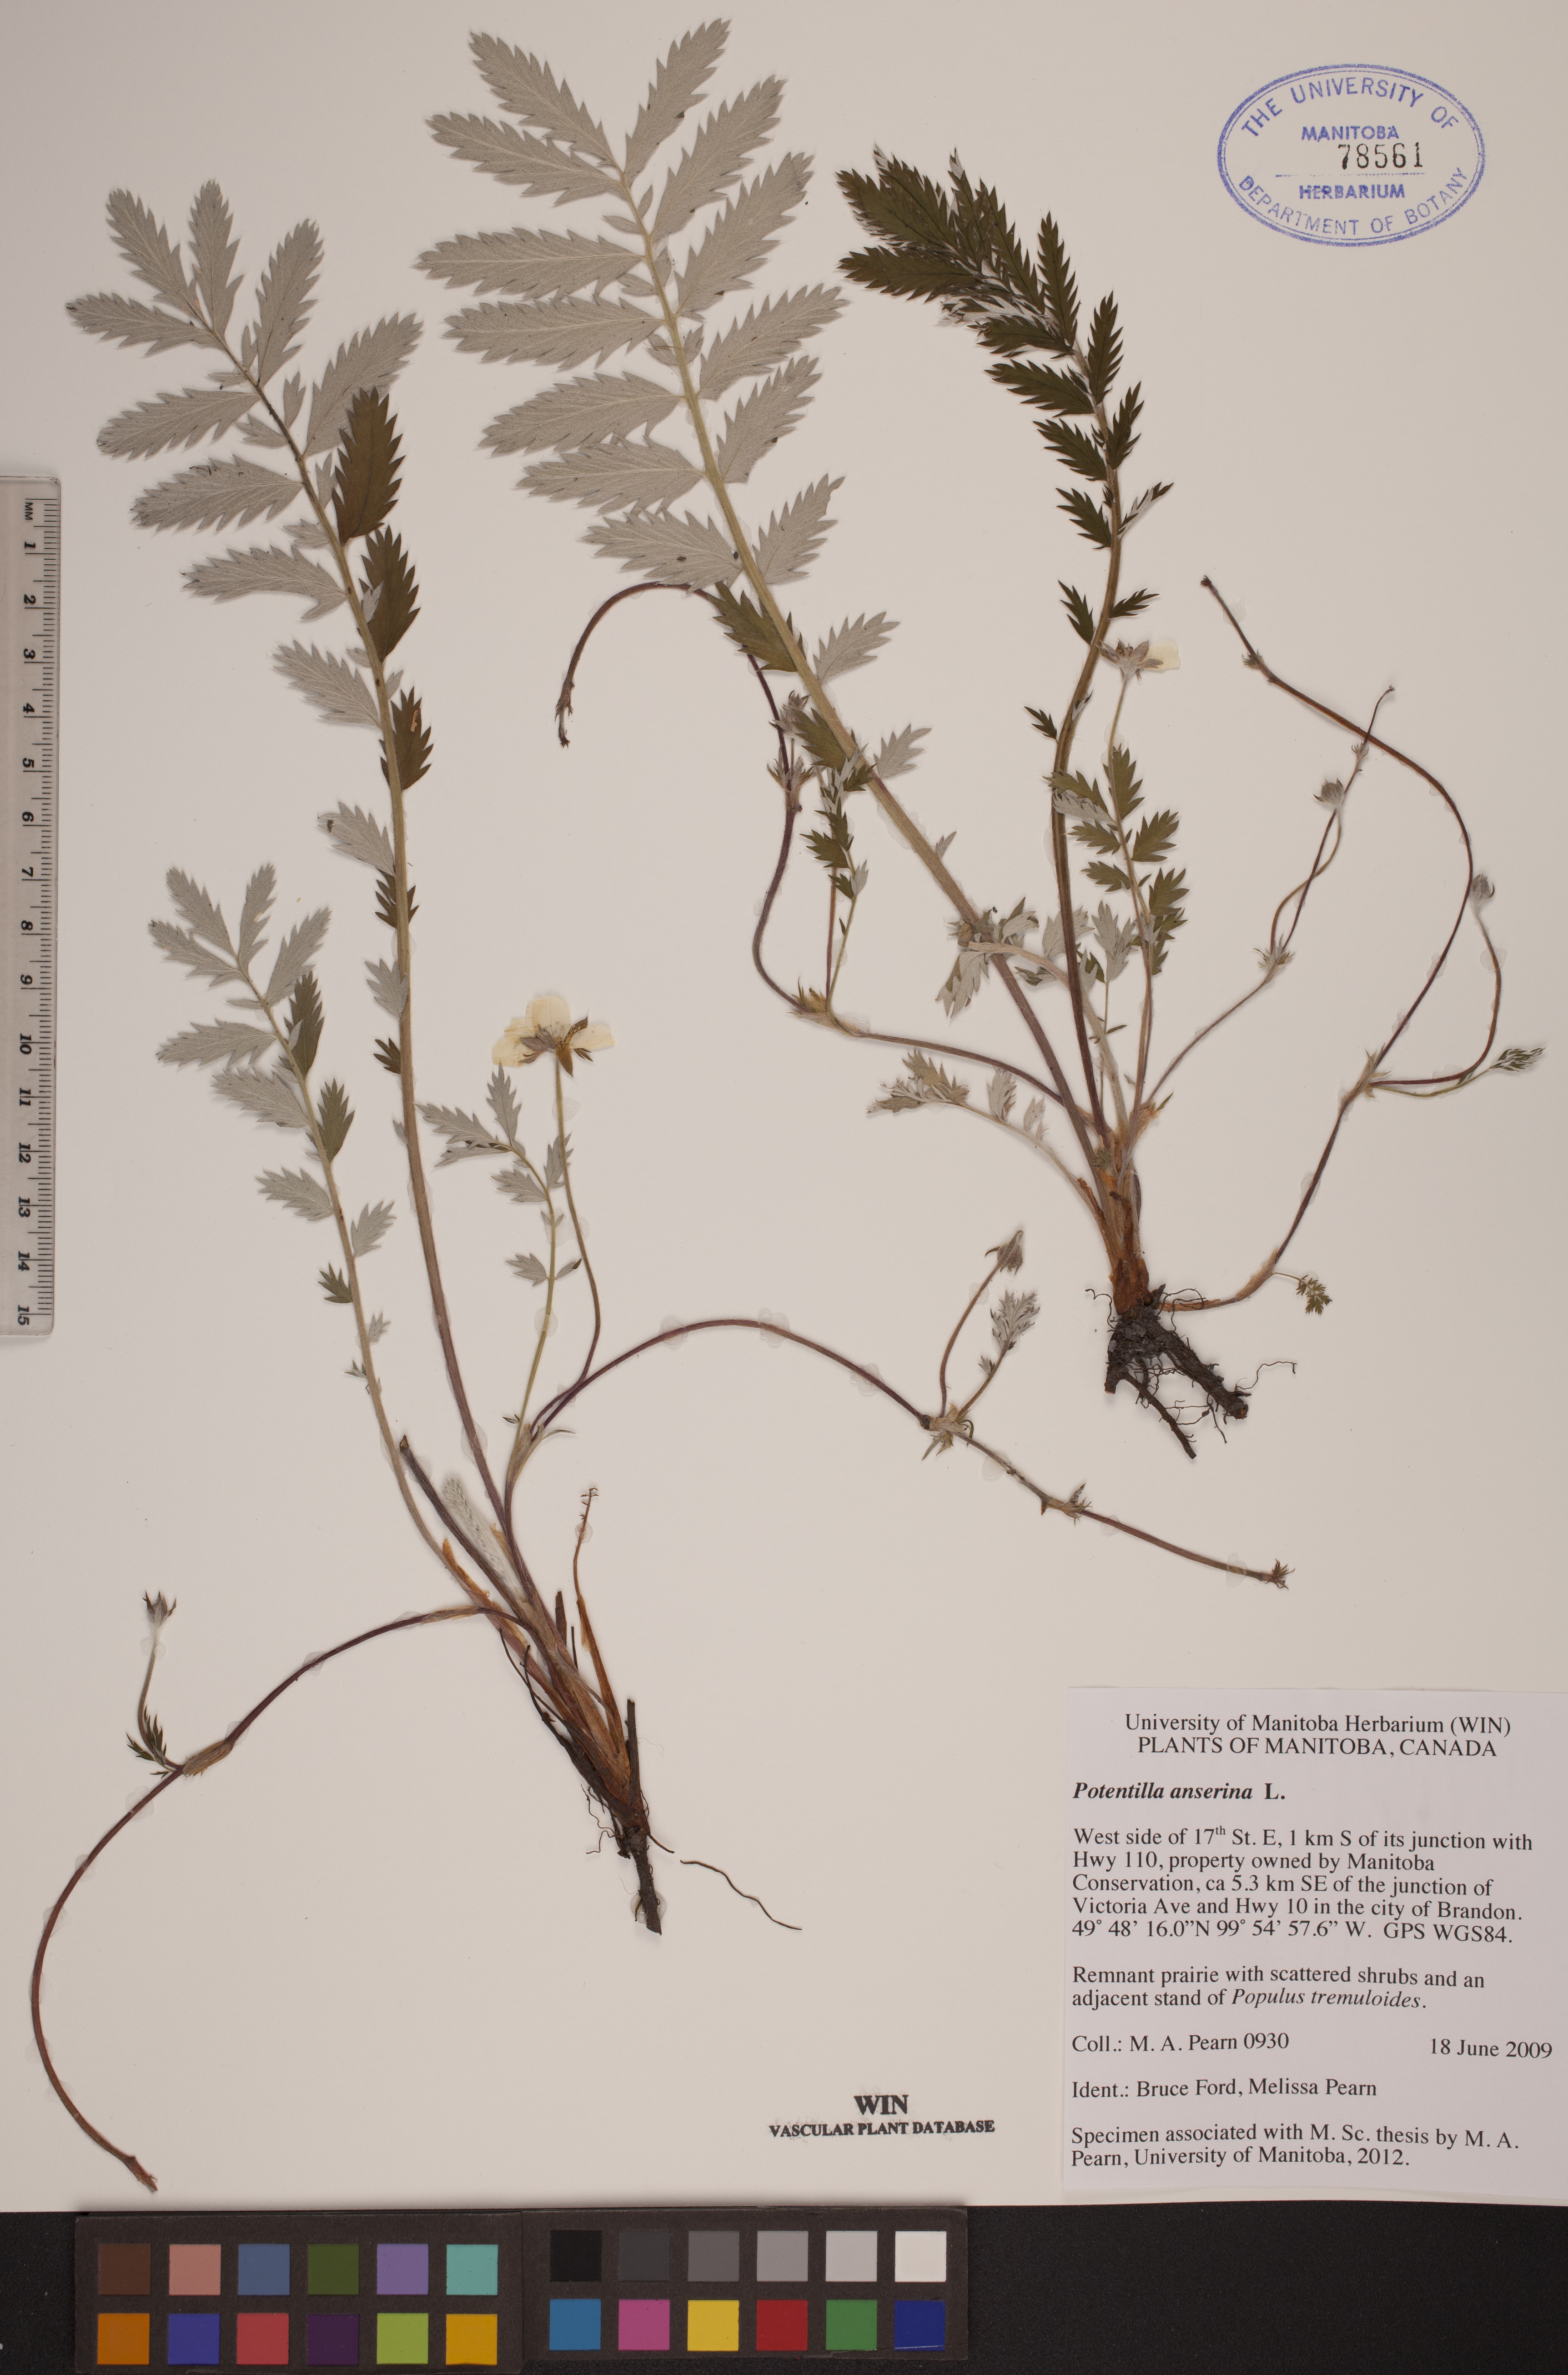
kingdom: Plantae
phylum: Tracheophyta
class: Magnoliopsida
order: Rosales
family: Rosaceae
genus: Argentina
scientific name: Argentina anserina
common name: Common silverweed
